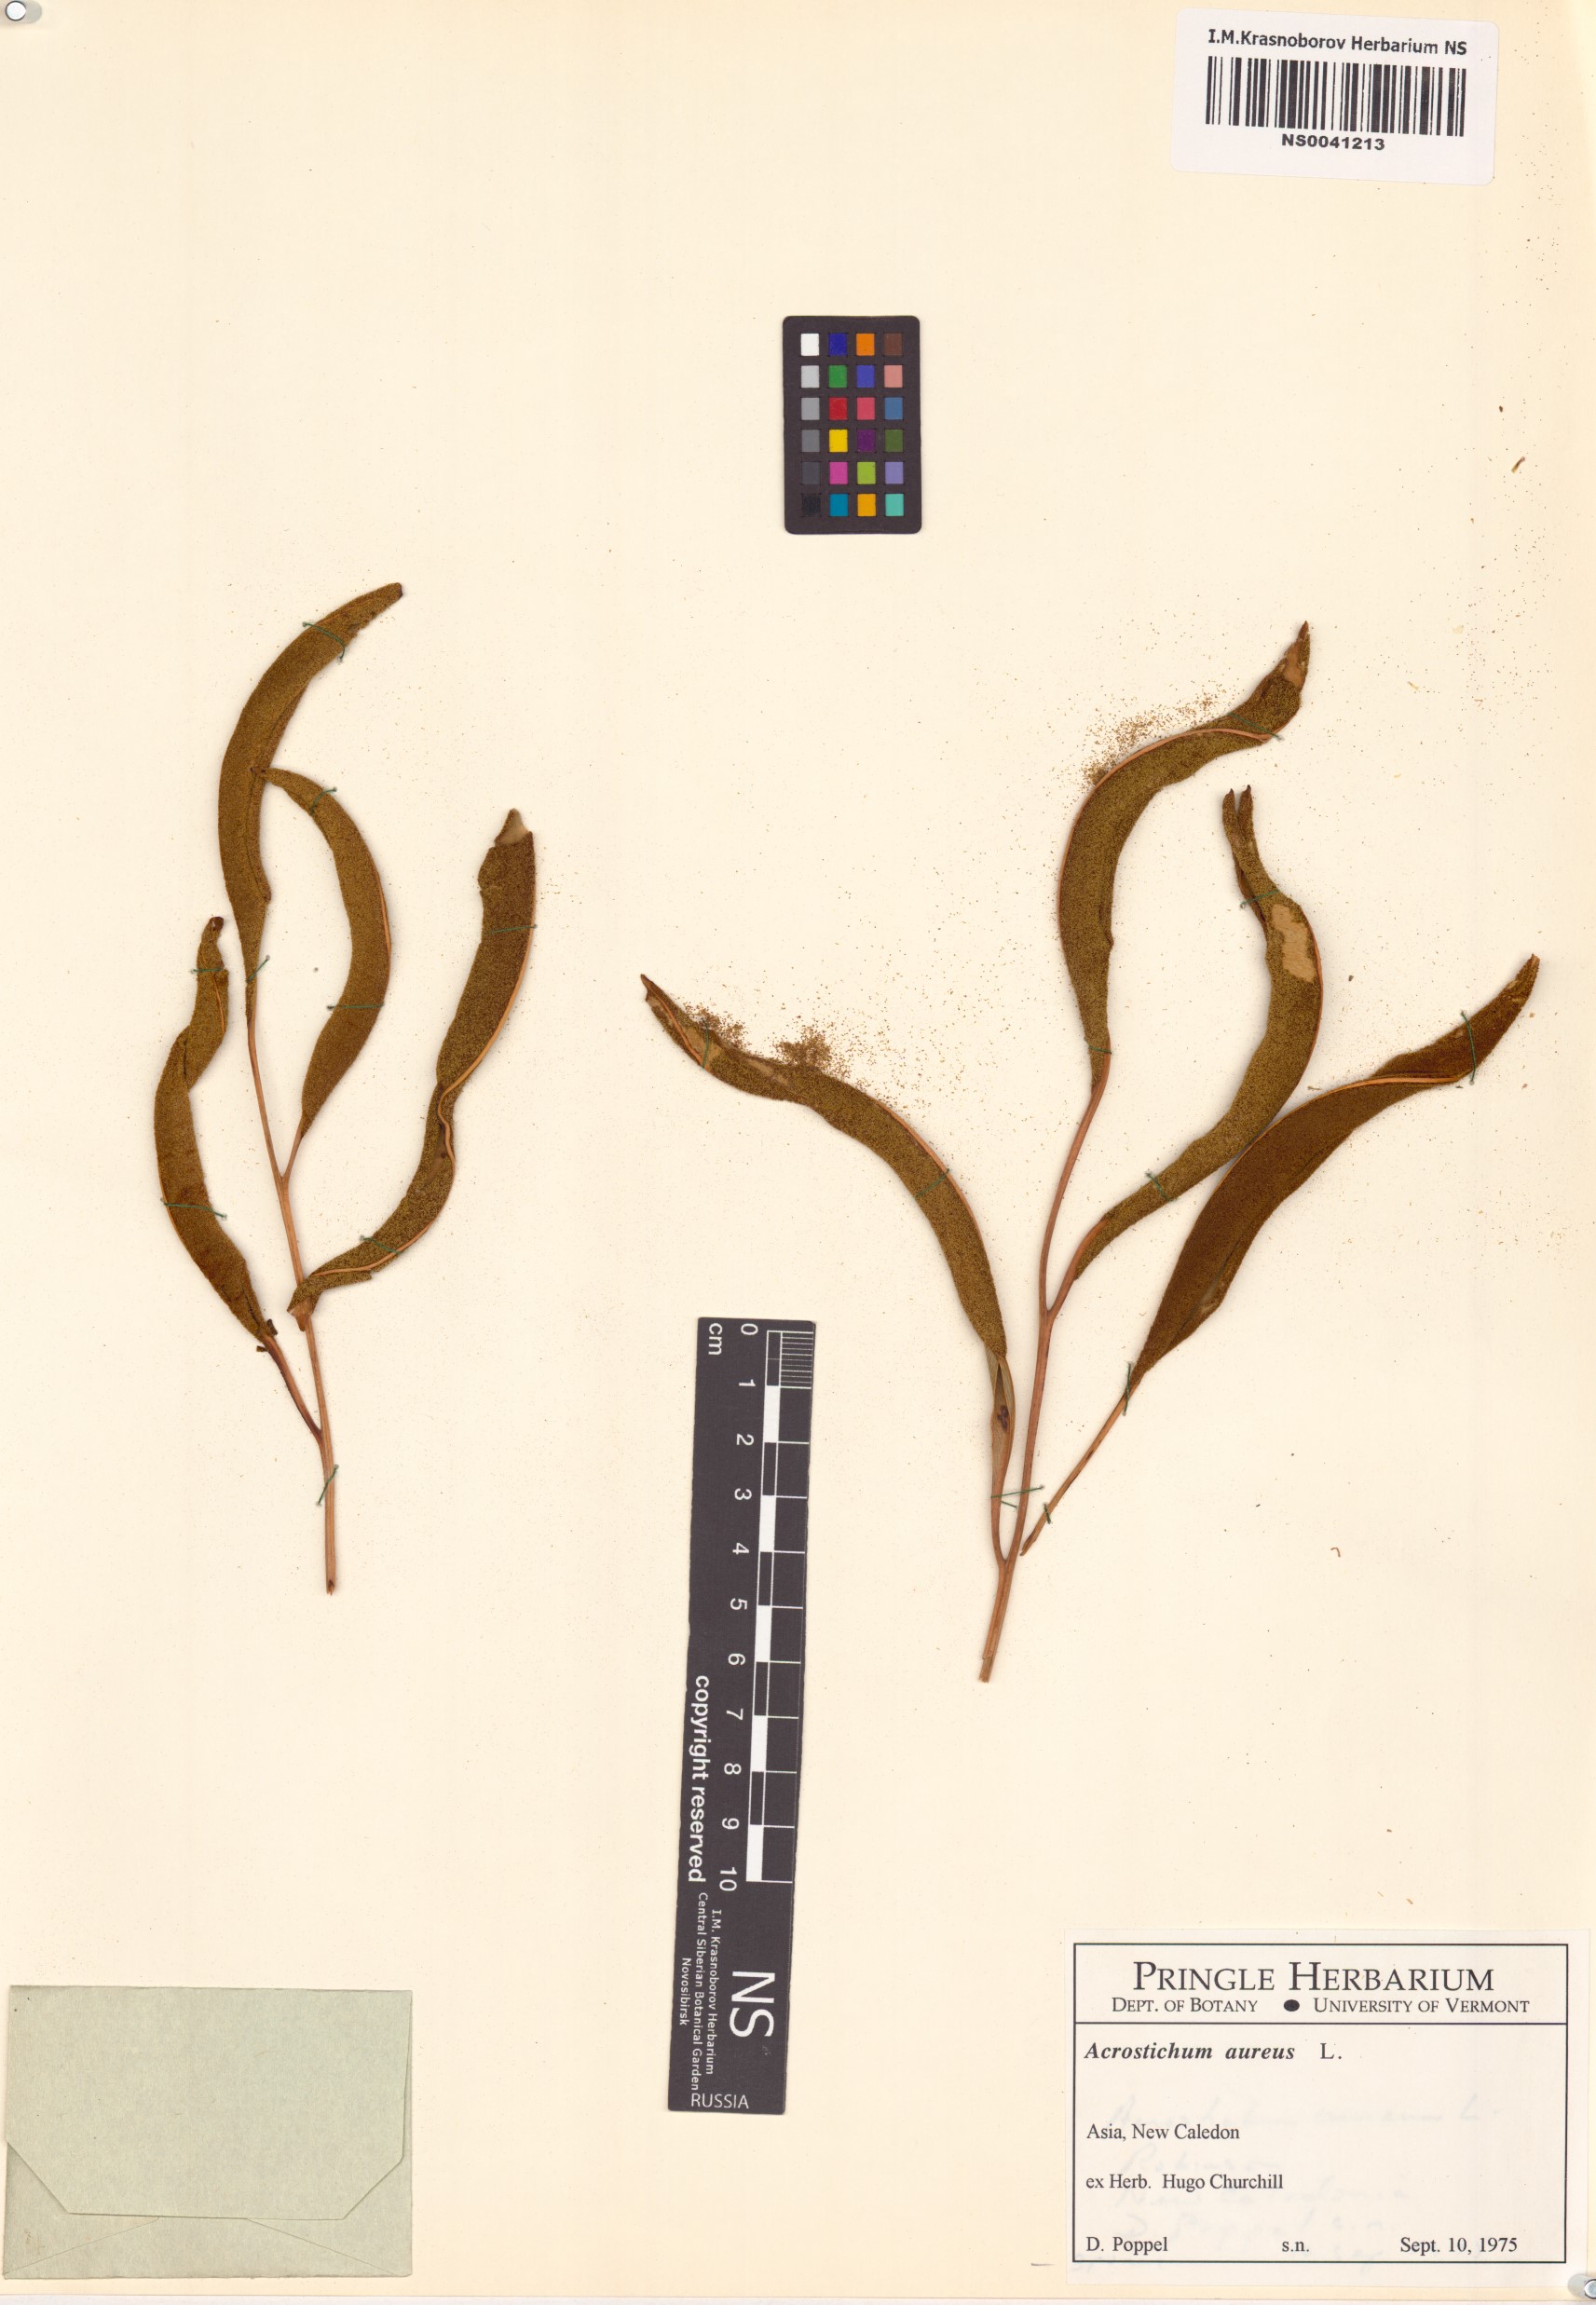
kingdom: Plantae
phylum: Tracheophyta
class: Polypodiopsida
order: Polypodiales
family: Pteridaceae
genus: Acrostichum
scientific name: Acrostichum aureum
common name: Leather fern
